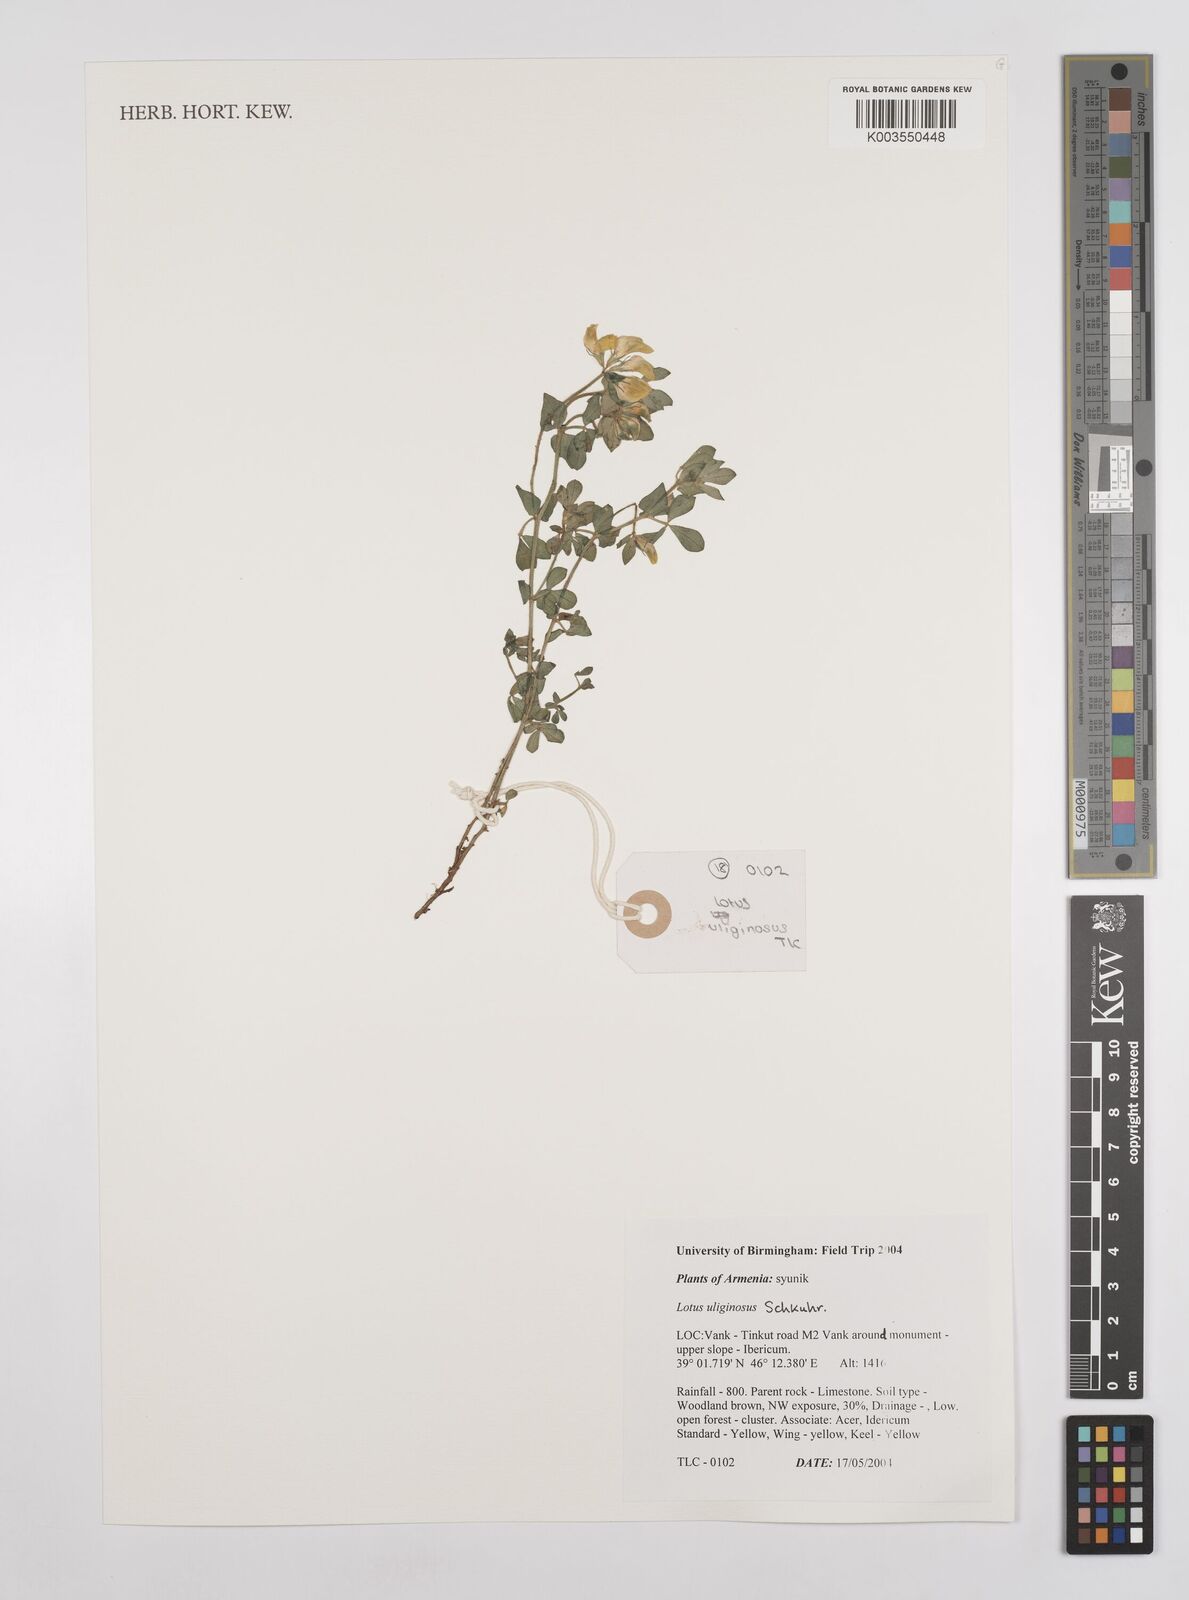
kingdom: Plantae
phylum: Tracheophyta
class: Magnoliopsida
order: Fabales
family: Fabaceae
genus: Lotus
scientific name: Lotus pedunculatus
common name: Greater birdsfoot-trefoil
